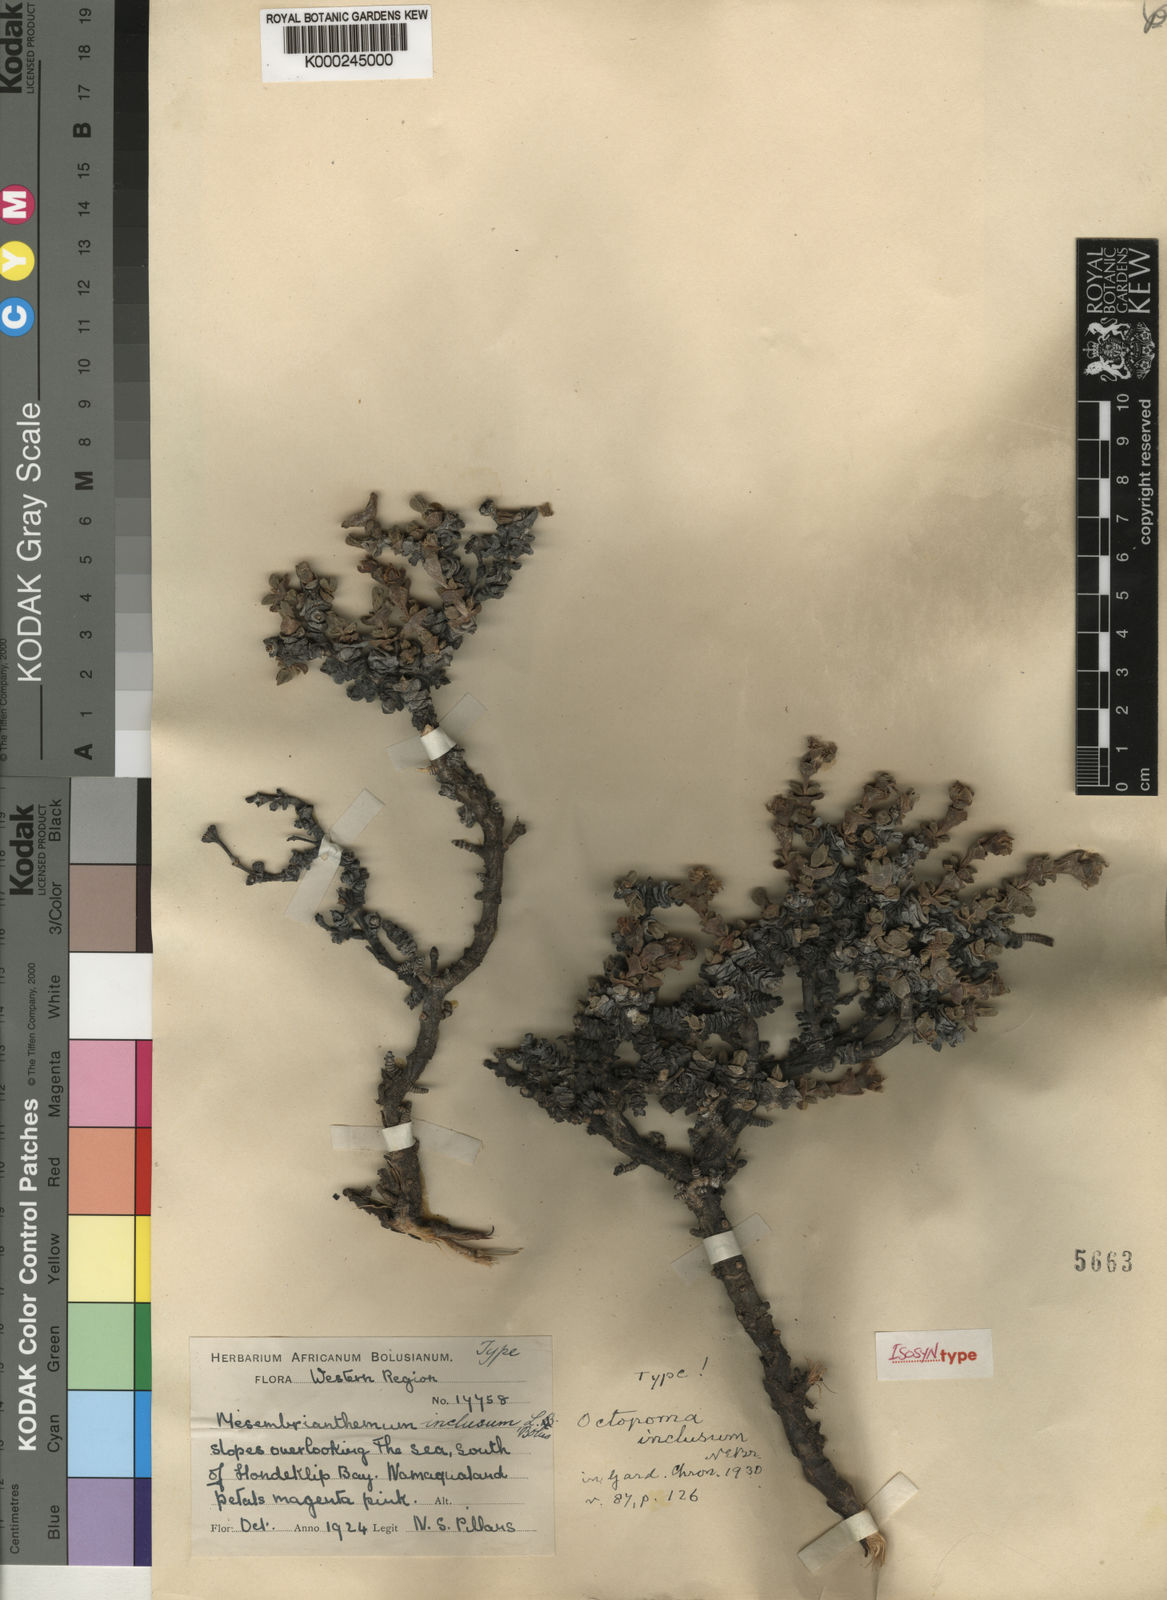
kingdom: Plantae
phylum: Tracheophyta
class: Magnoliopsida
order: Caryophyllales
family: Aizoaceae
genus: Schlechteranthus
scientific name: Schlechteranthus inclusus
